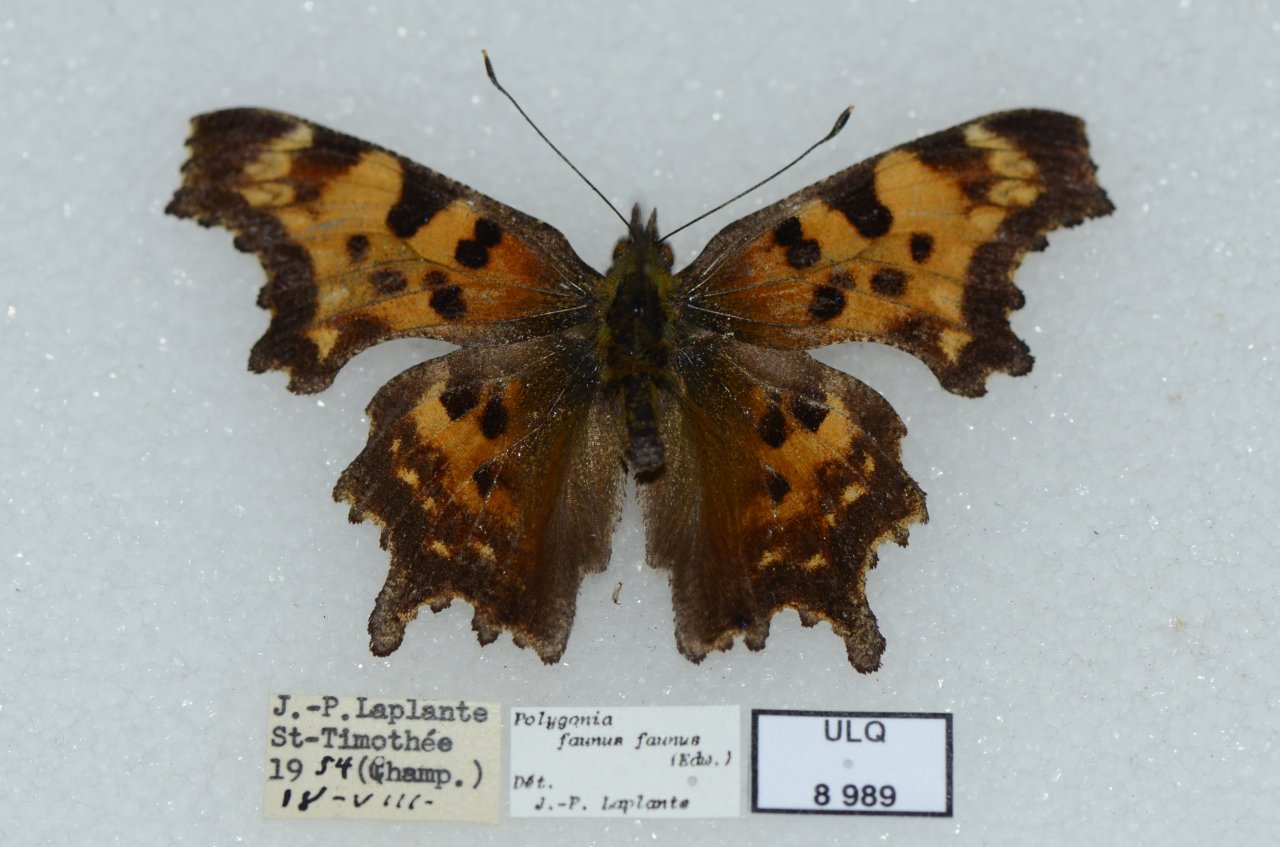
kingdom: Animalia
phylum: Arthropoda
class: Insecta
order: Lepidoptera
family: Nymphalidae
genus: Polygonia
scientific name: Polygonia faunus
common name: Green Comma
